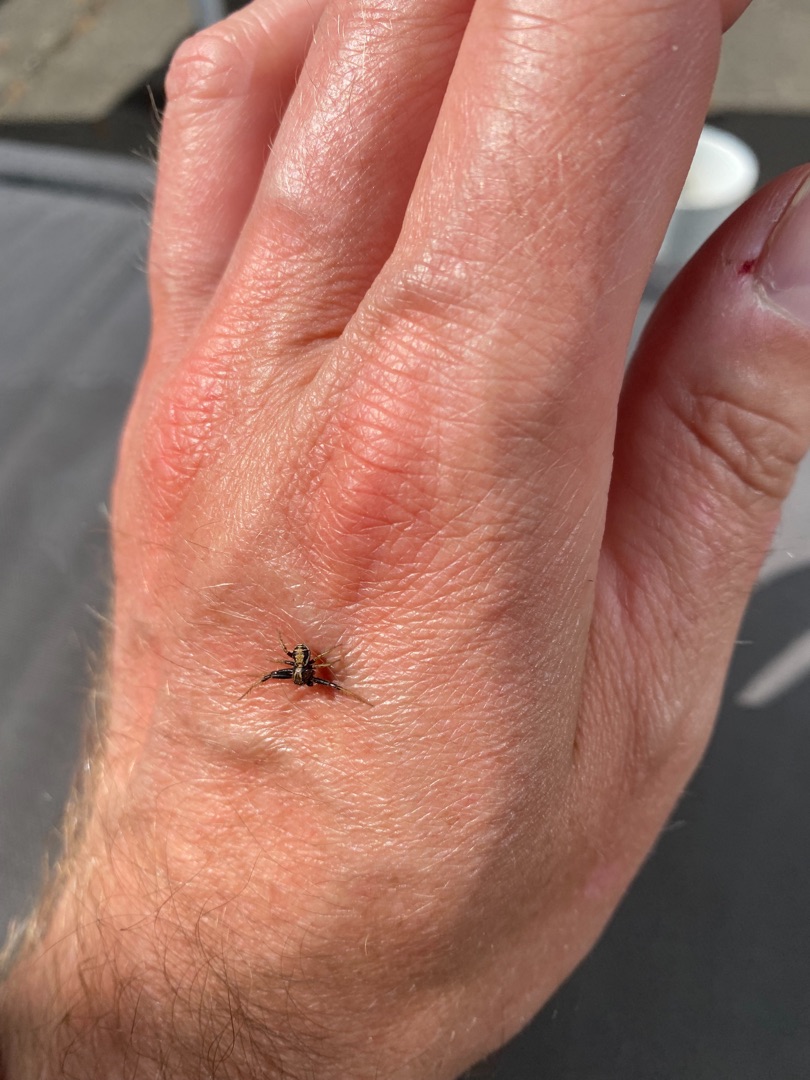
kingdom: Animalia
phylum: Arthropoda
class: Arachnida
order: Araneae
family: Thomisidae
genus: Xysticus
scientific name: Xysticus ulmi
